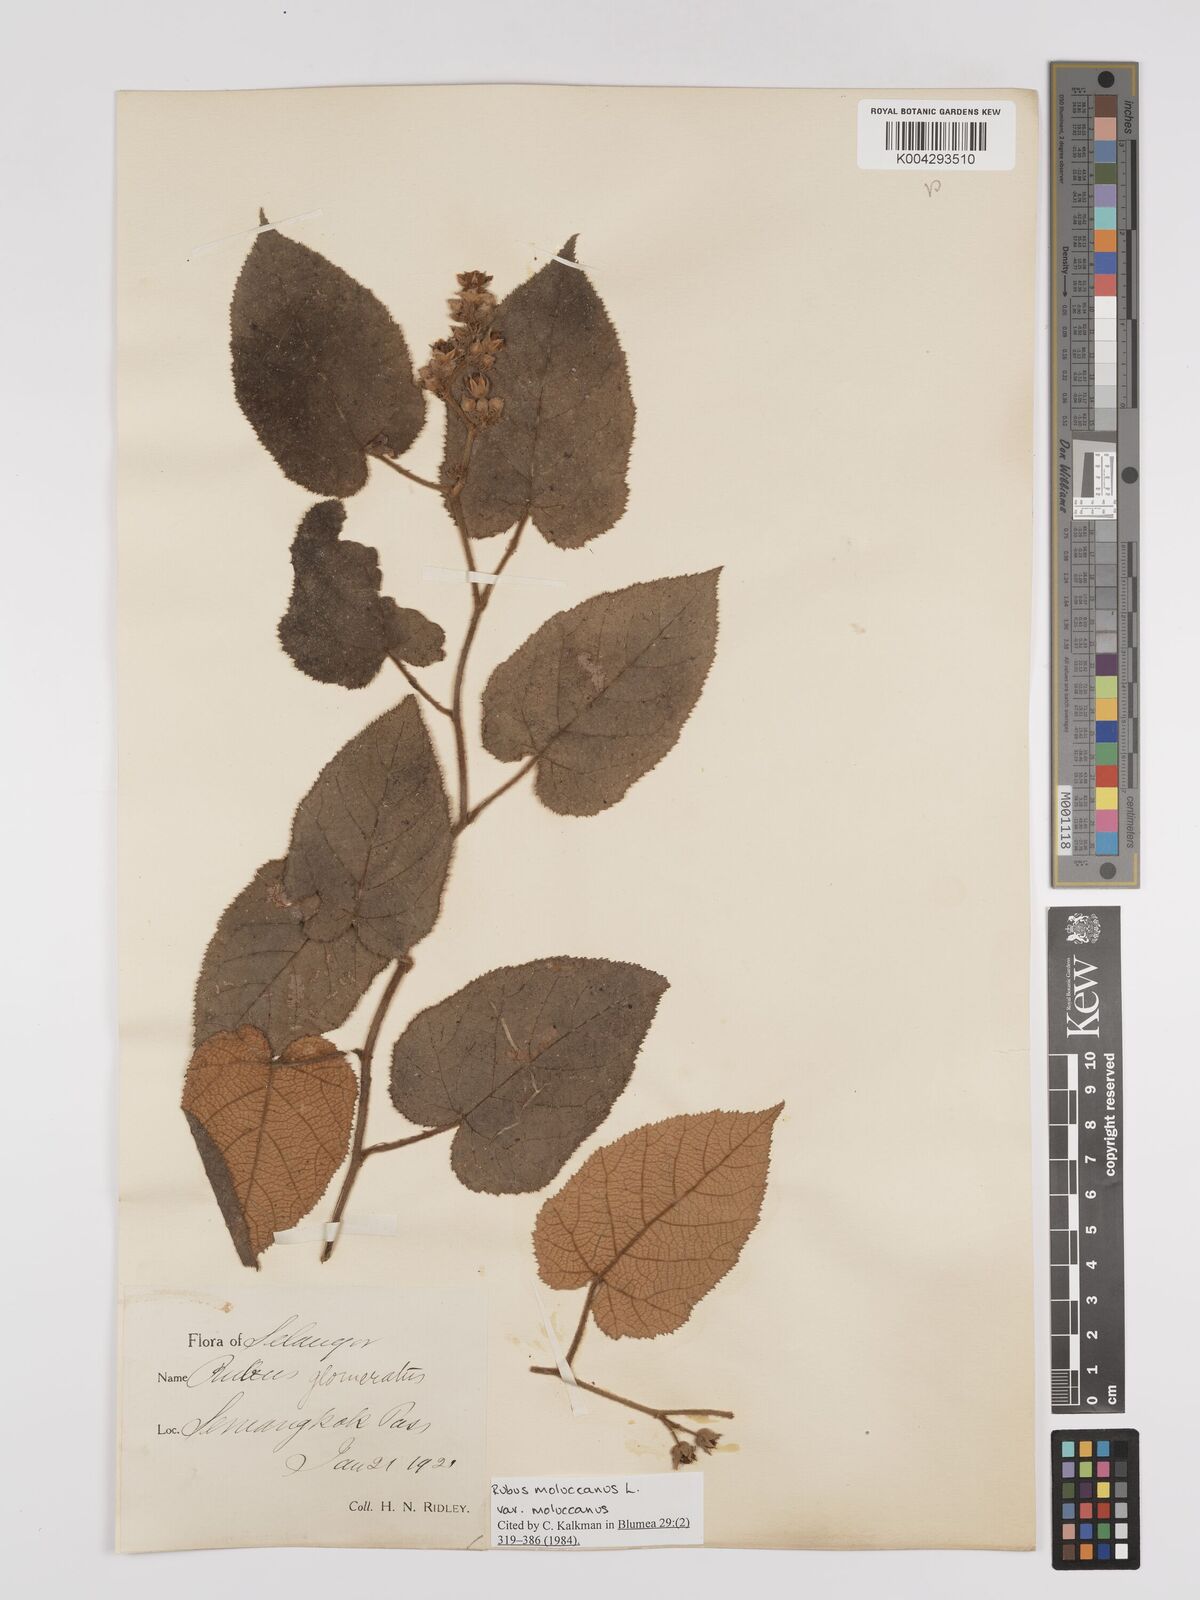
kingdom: Plantae
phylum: Tracheophyta
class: Magnoliopsida
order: Rosales
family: Rosaceae
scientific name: Rosaceae
